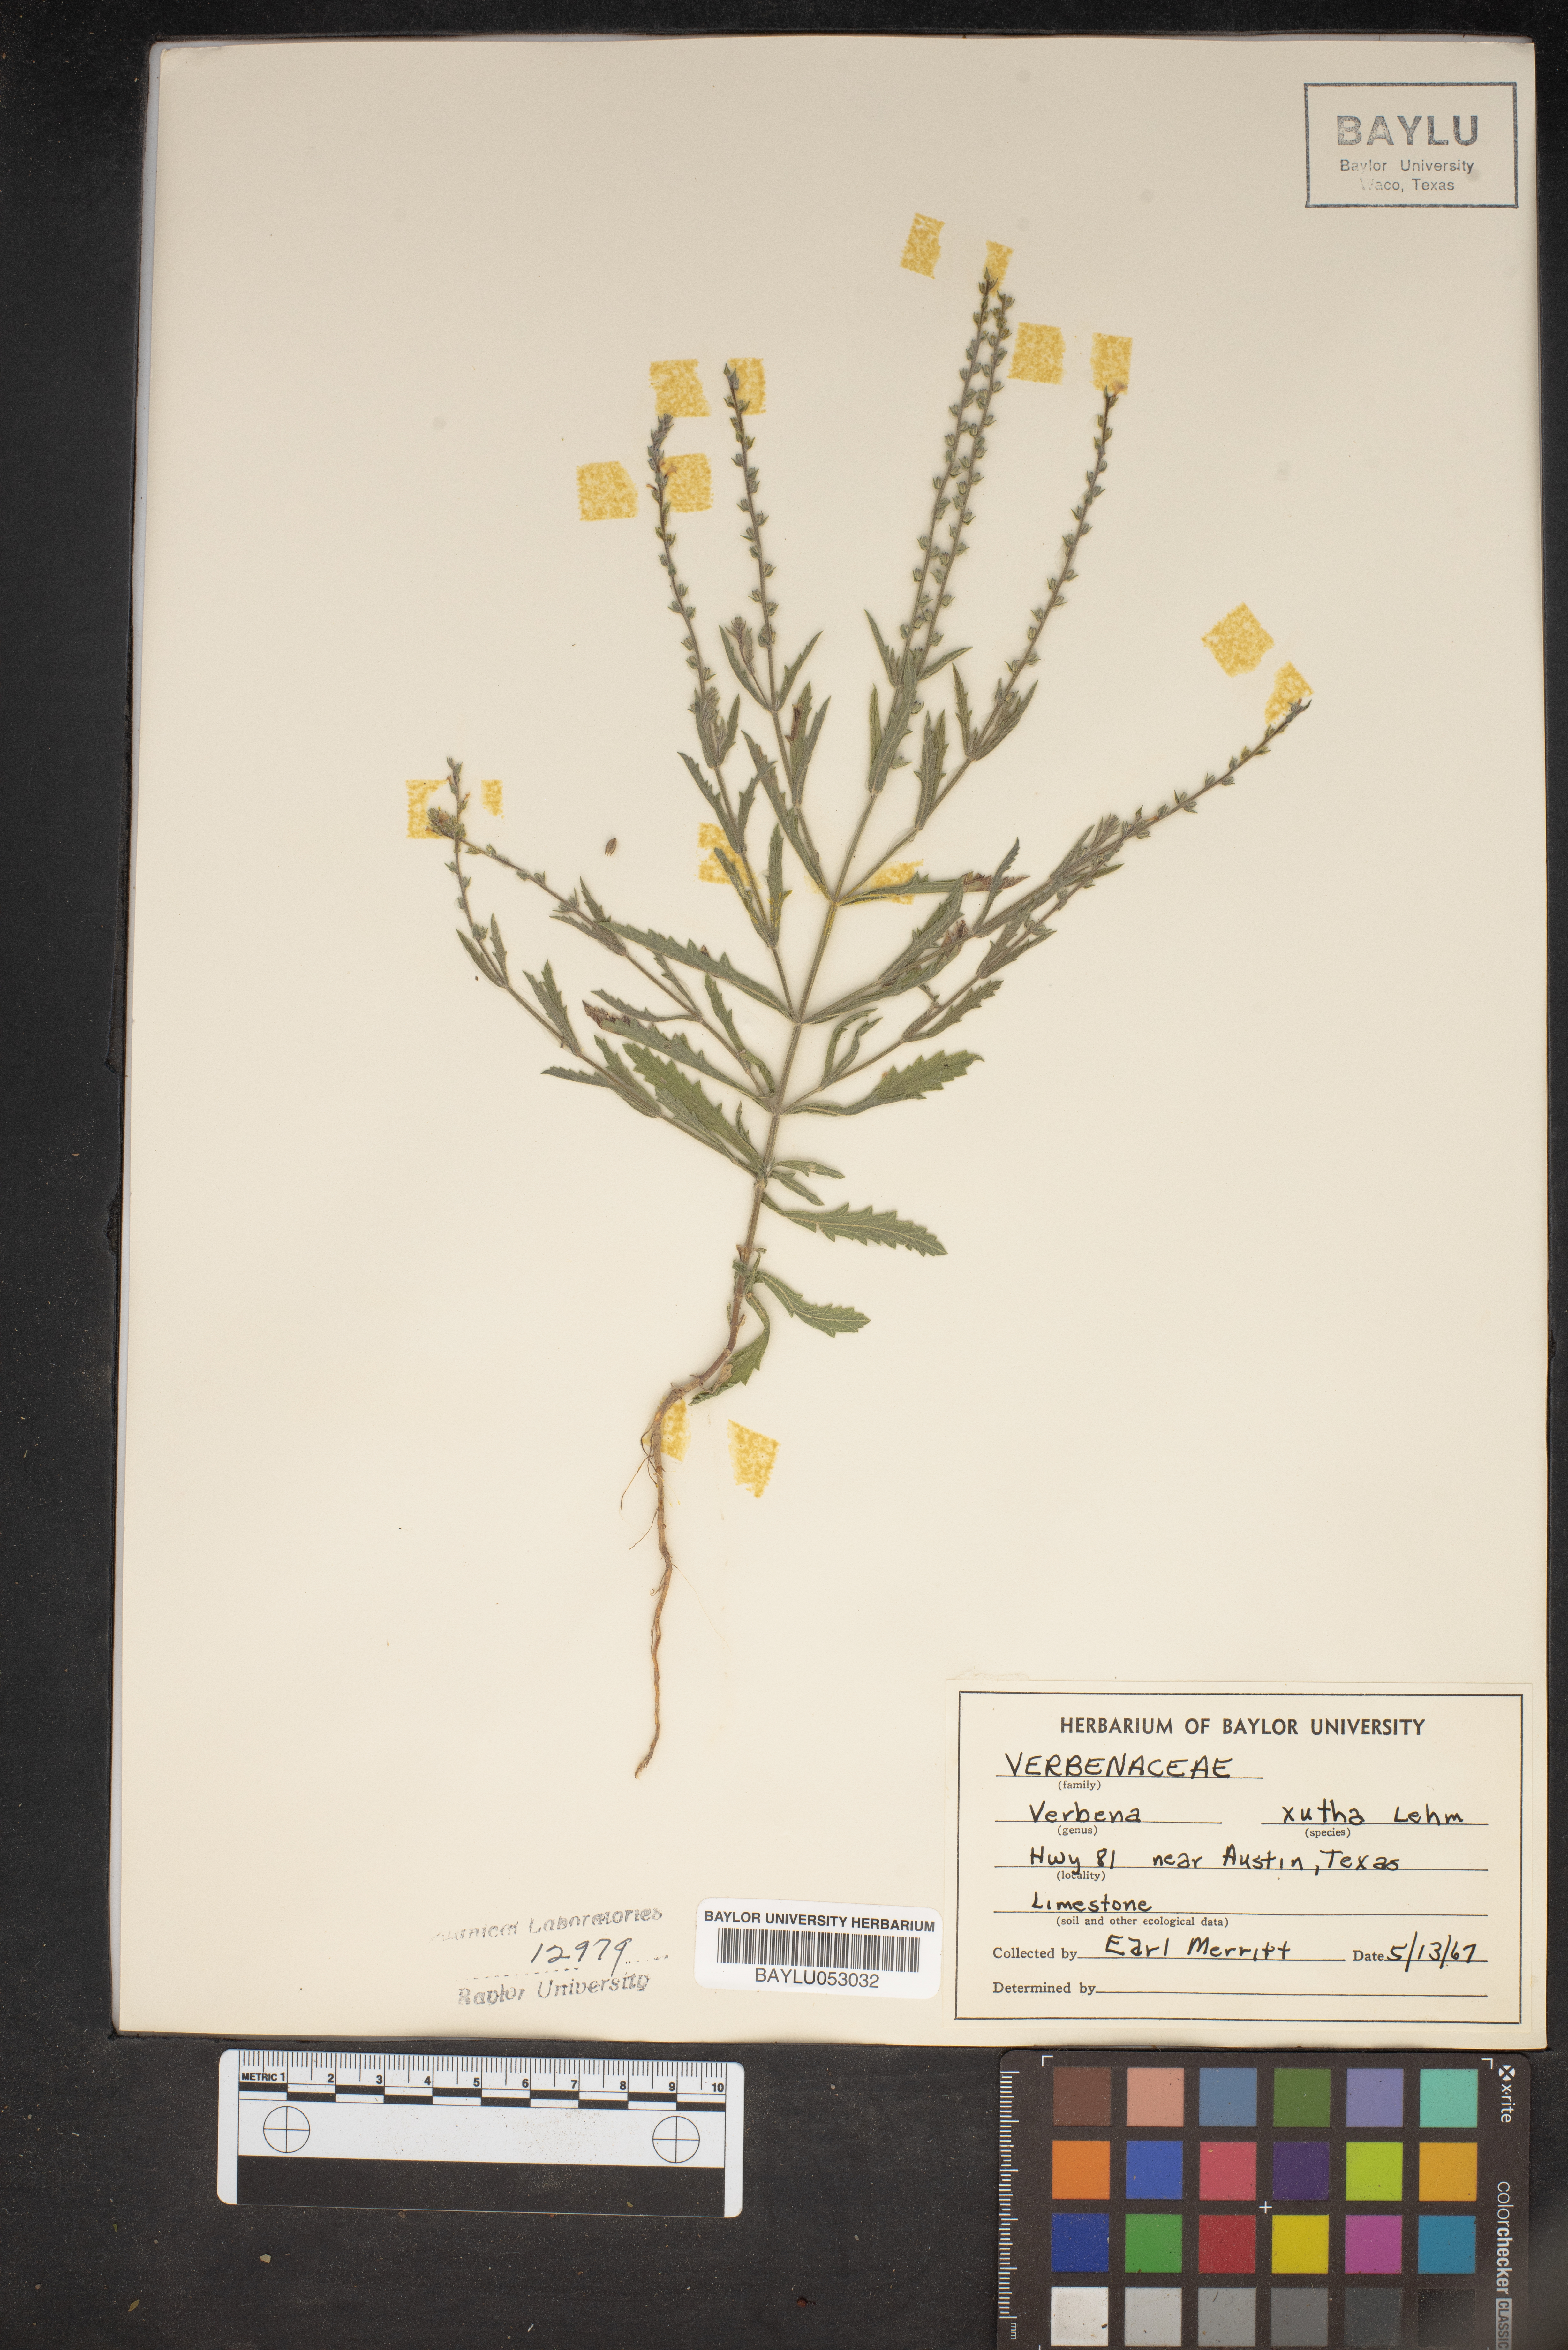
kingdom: Plantae
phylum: Tracheophyta
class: Magnoliopsida
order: Lamiales
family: Verbenaceae
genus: Verbena
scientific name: Verbena xutha
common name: Gulf vervain
